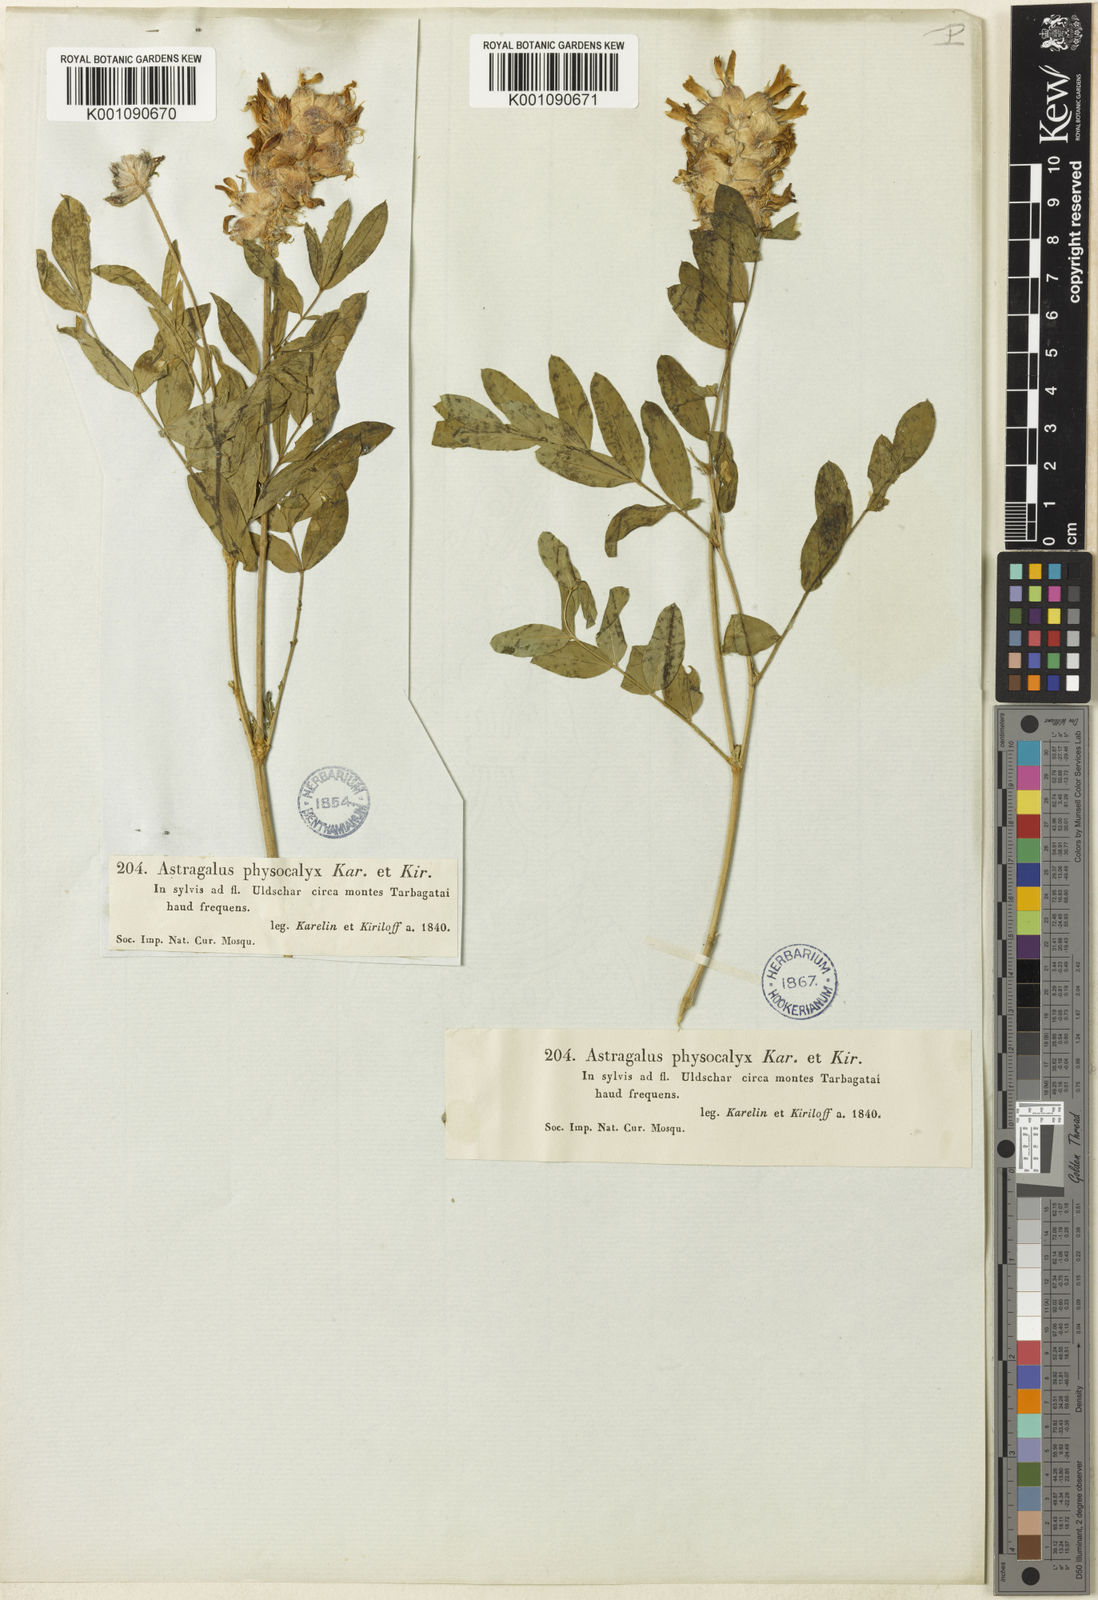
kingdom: Plantae
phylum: Tracheophyta
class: Magnoliopsida
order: Fabales
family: Fabaceae
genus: Astragalus
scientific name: Astragalus
